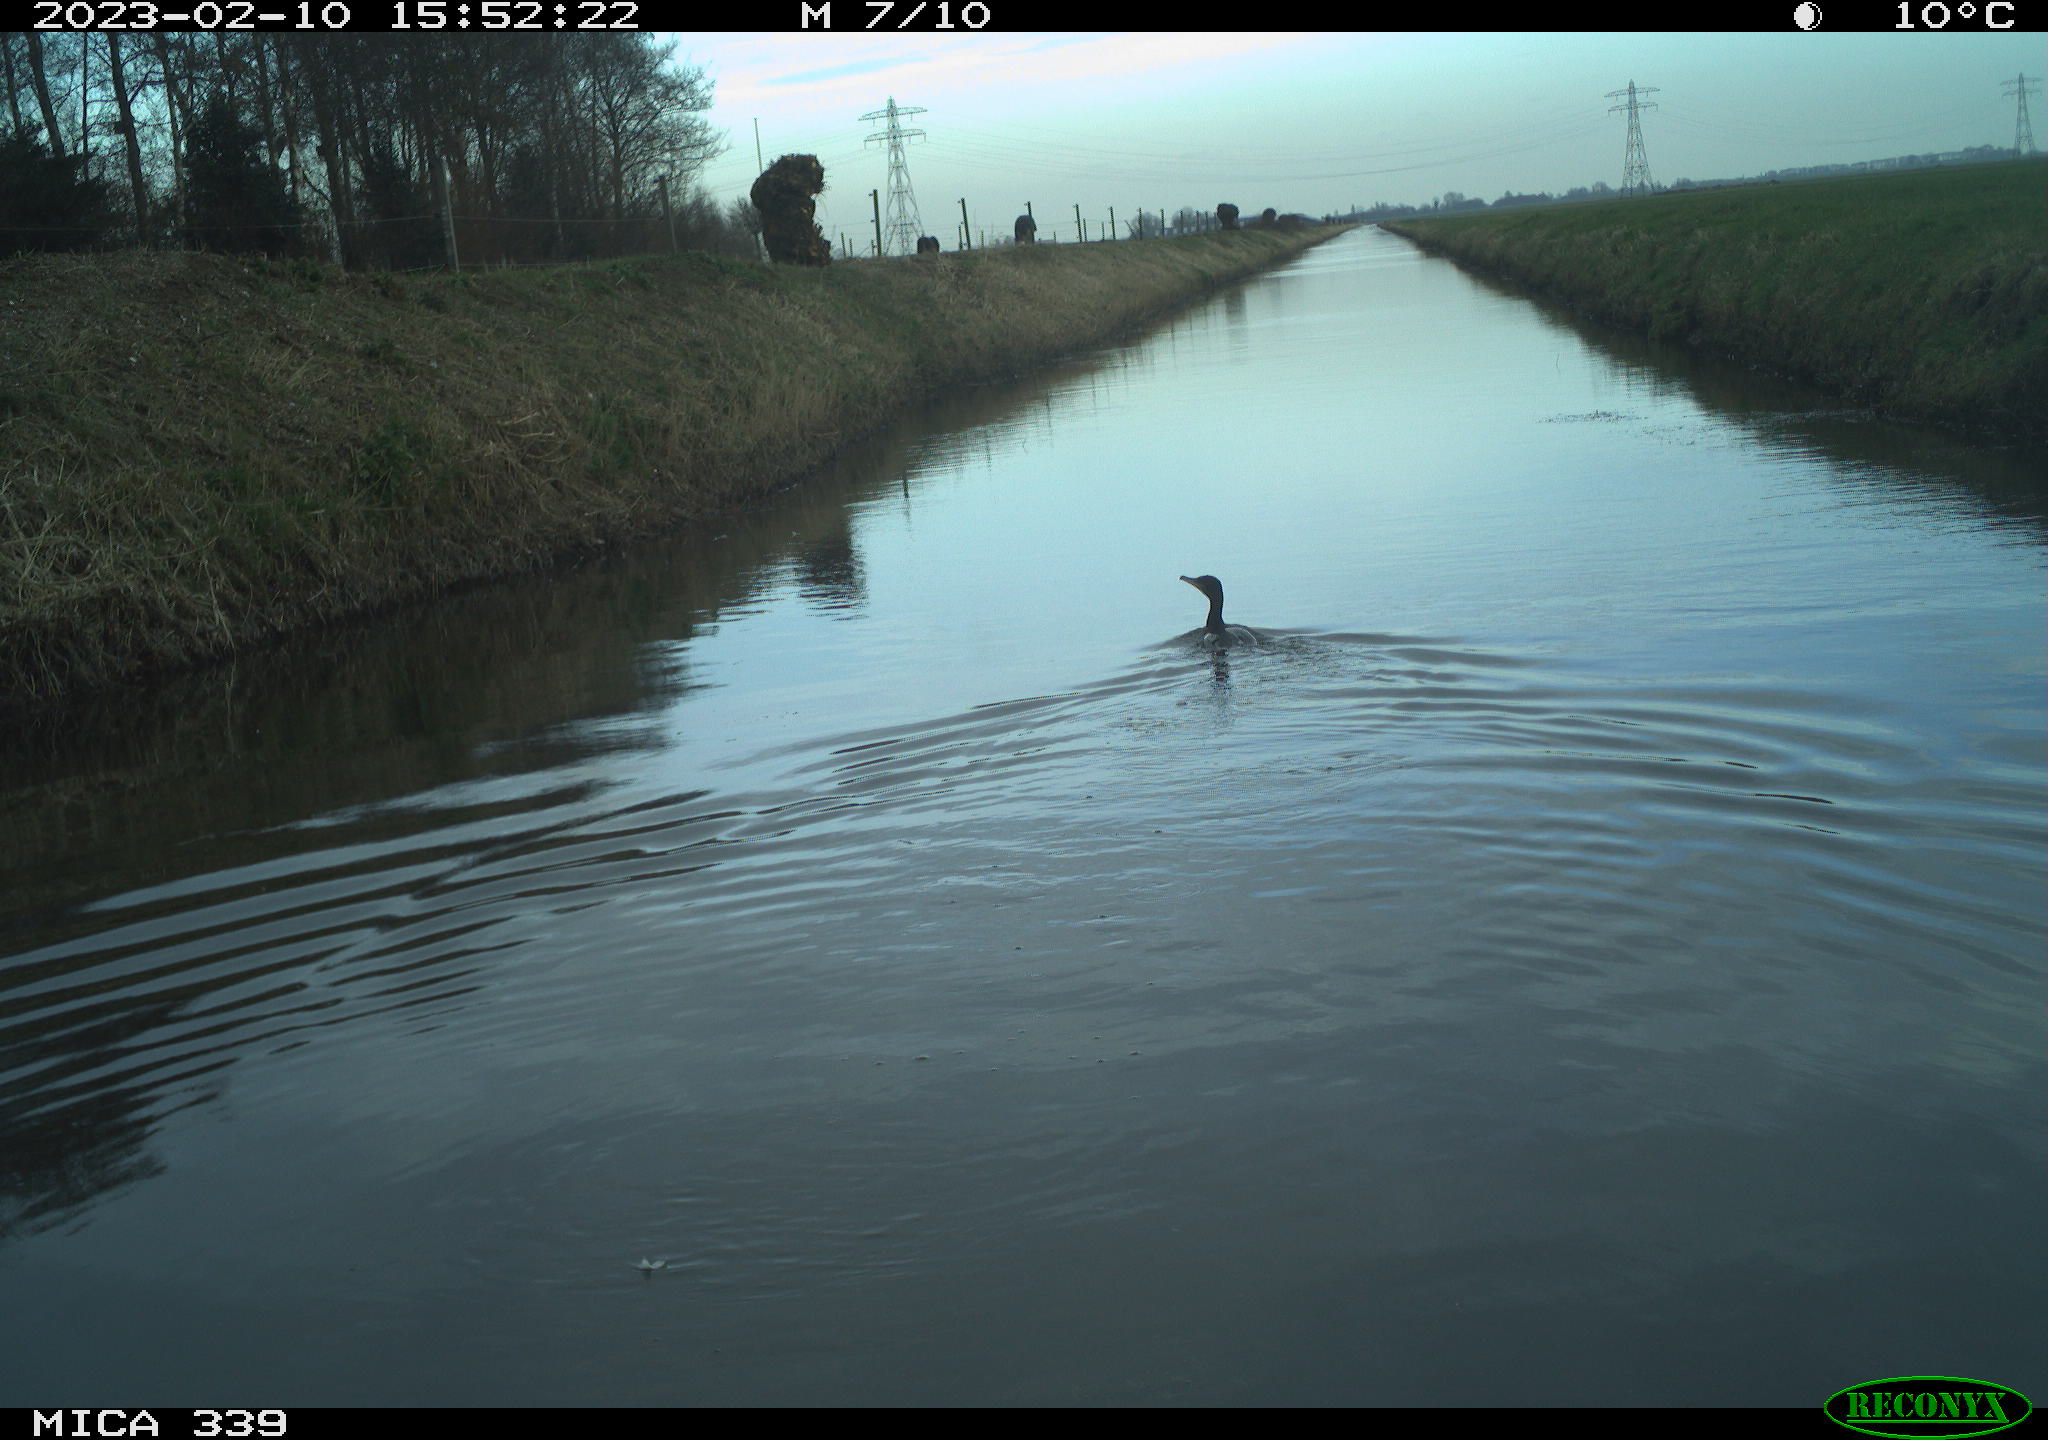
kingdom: Animalia
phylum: Chordata
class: Aves
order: Suliformes
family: Phalacrocoracidae
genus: Phalacrocorax
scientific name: Phalacrocorax carbo
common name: Great cormorant
